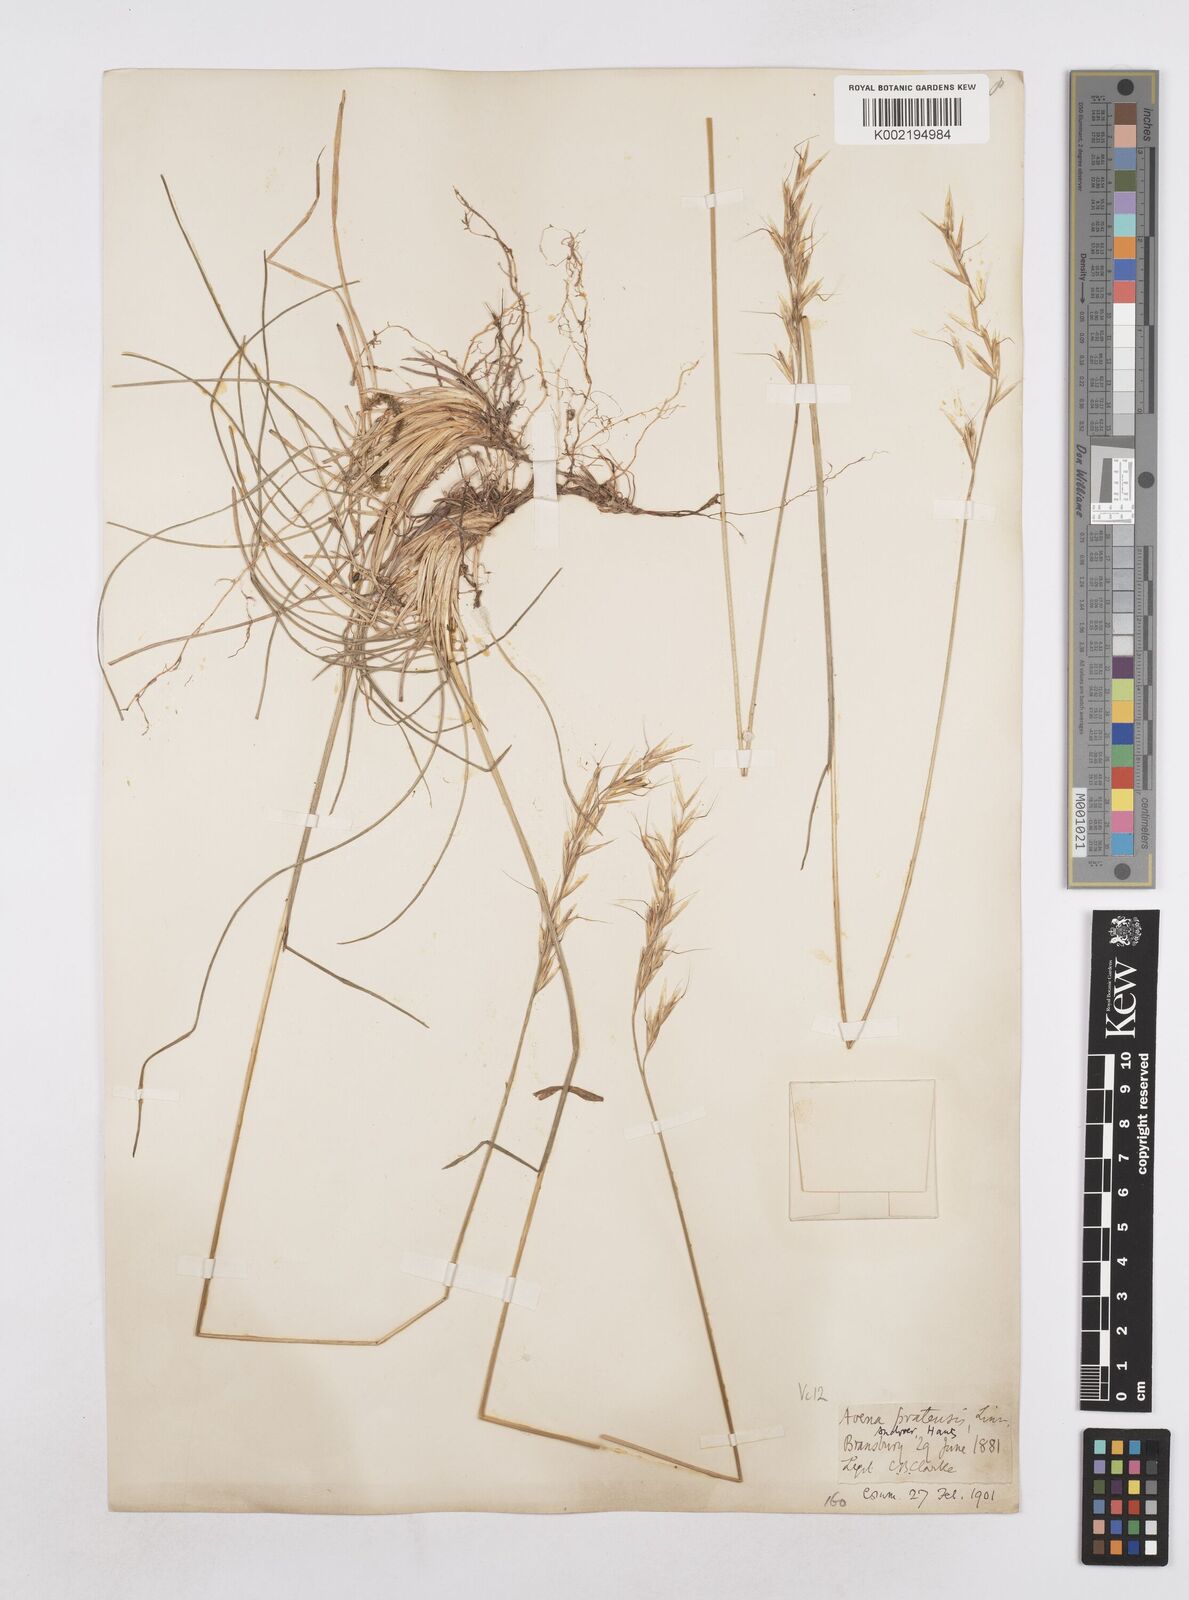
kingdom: Plantae
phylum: Tracheophyta
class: Liliopsida
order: Poales
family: Poaceae
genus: Helictochloa
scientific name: Helictochloa pratensis
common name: Meadow oat grass
